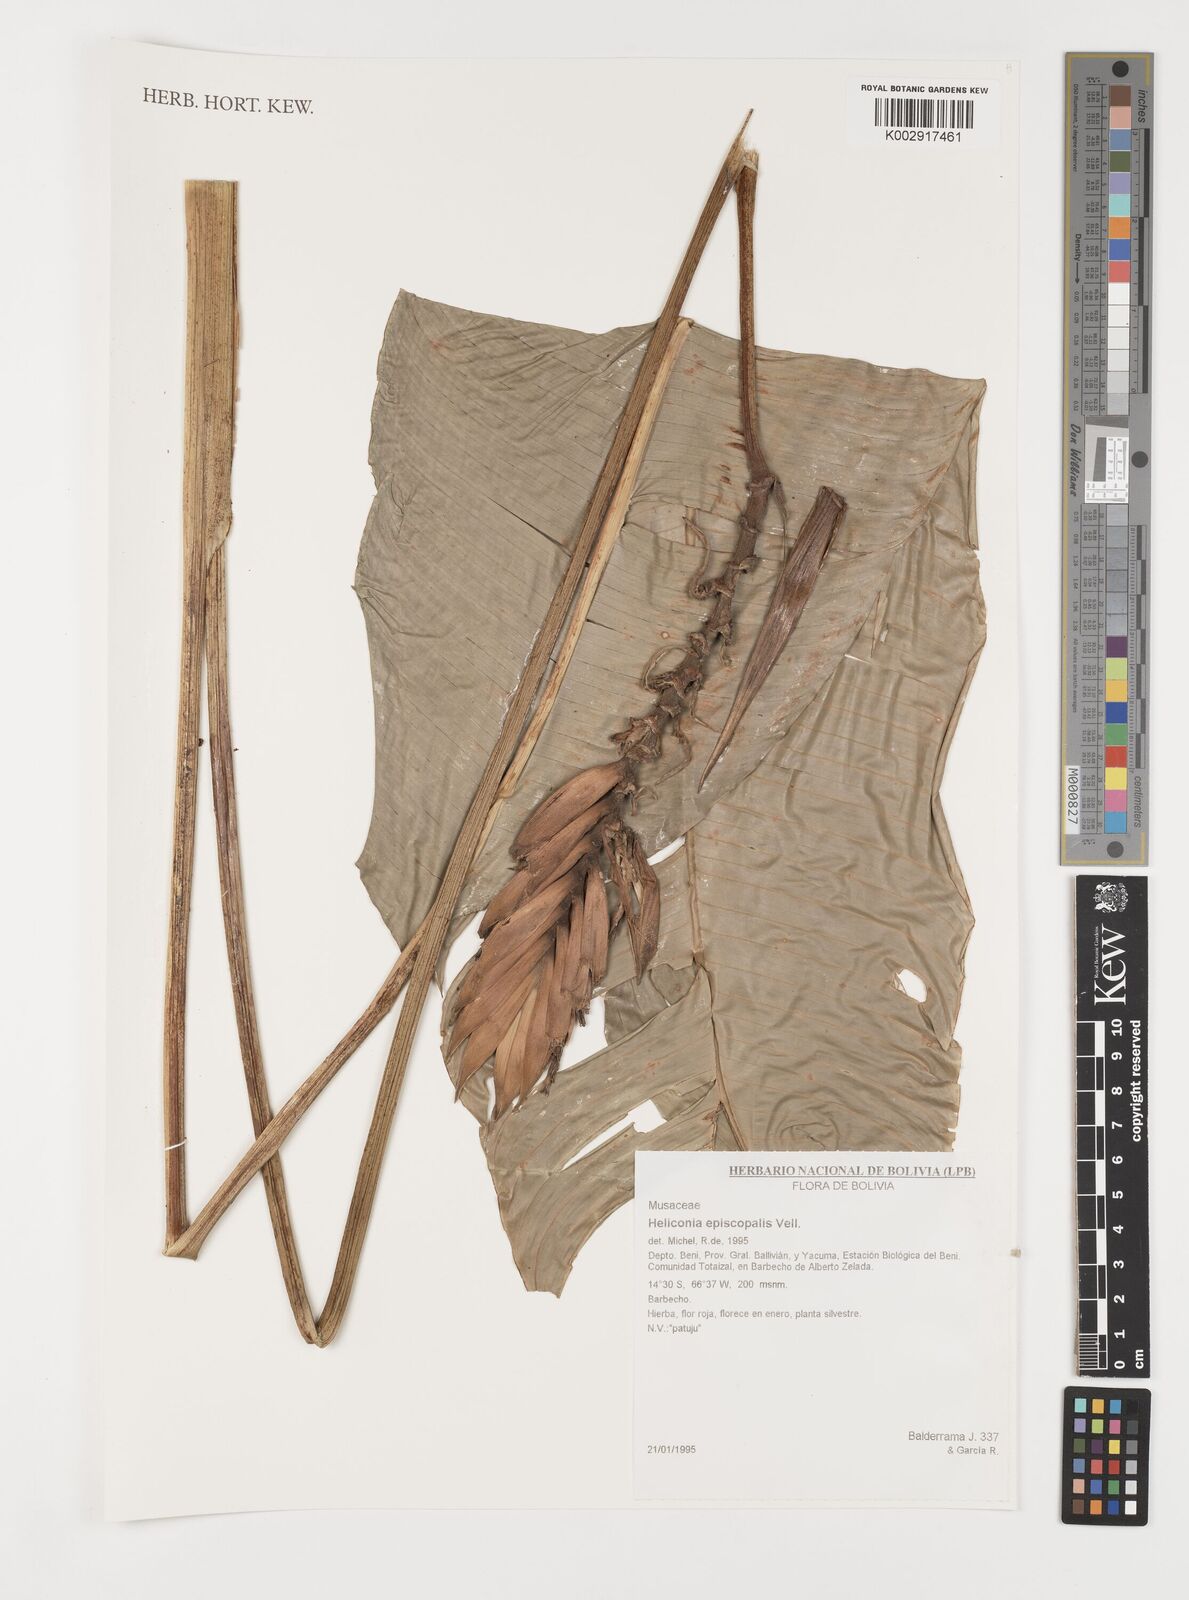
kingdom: Plantae
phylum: Tracheophyta
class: Liliopsida
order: Zingiberales
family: Heliconiaceae
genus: Heliconia
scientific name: Heliconia episcopalis
